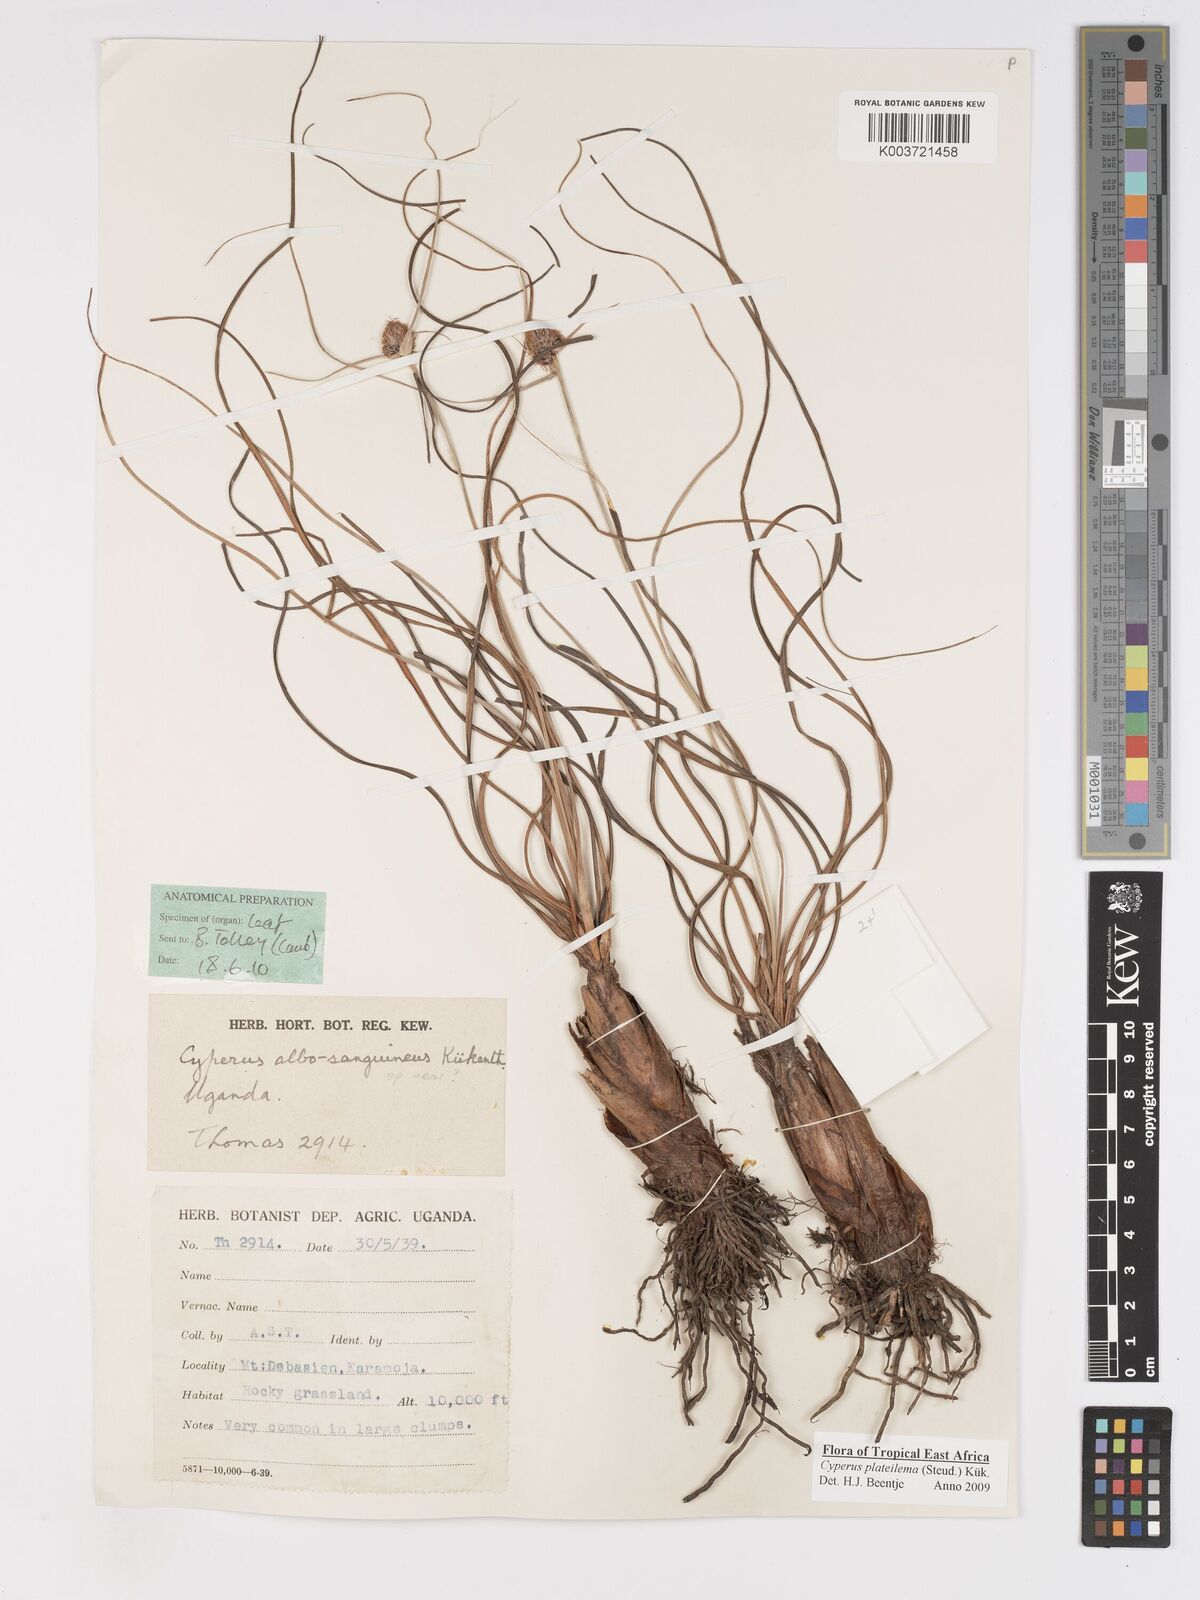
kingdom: Plantae
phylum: Tracheophyta
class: Liliopsida
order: Poales
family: Cyperaceae
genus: Cyperus
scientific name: Cyperus plateilema
